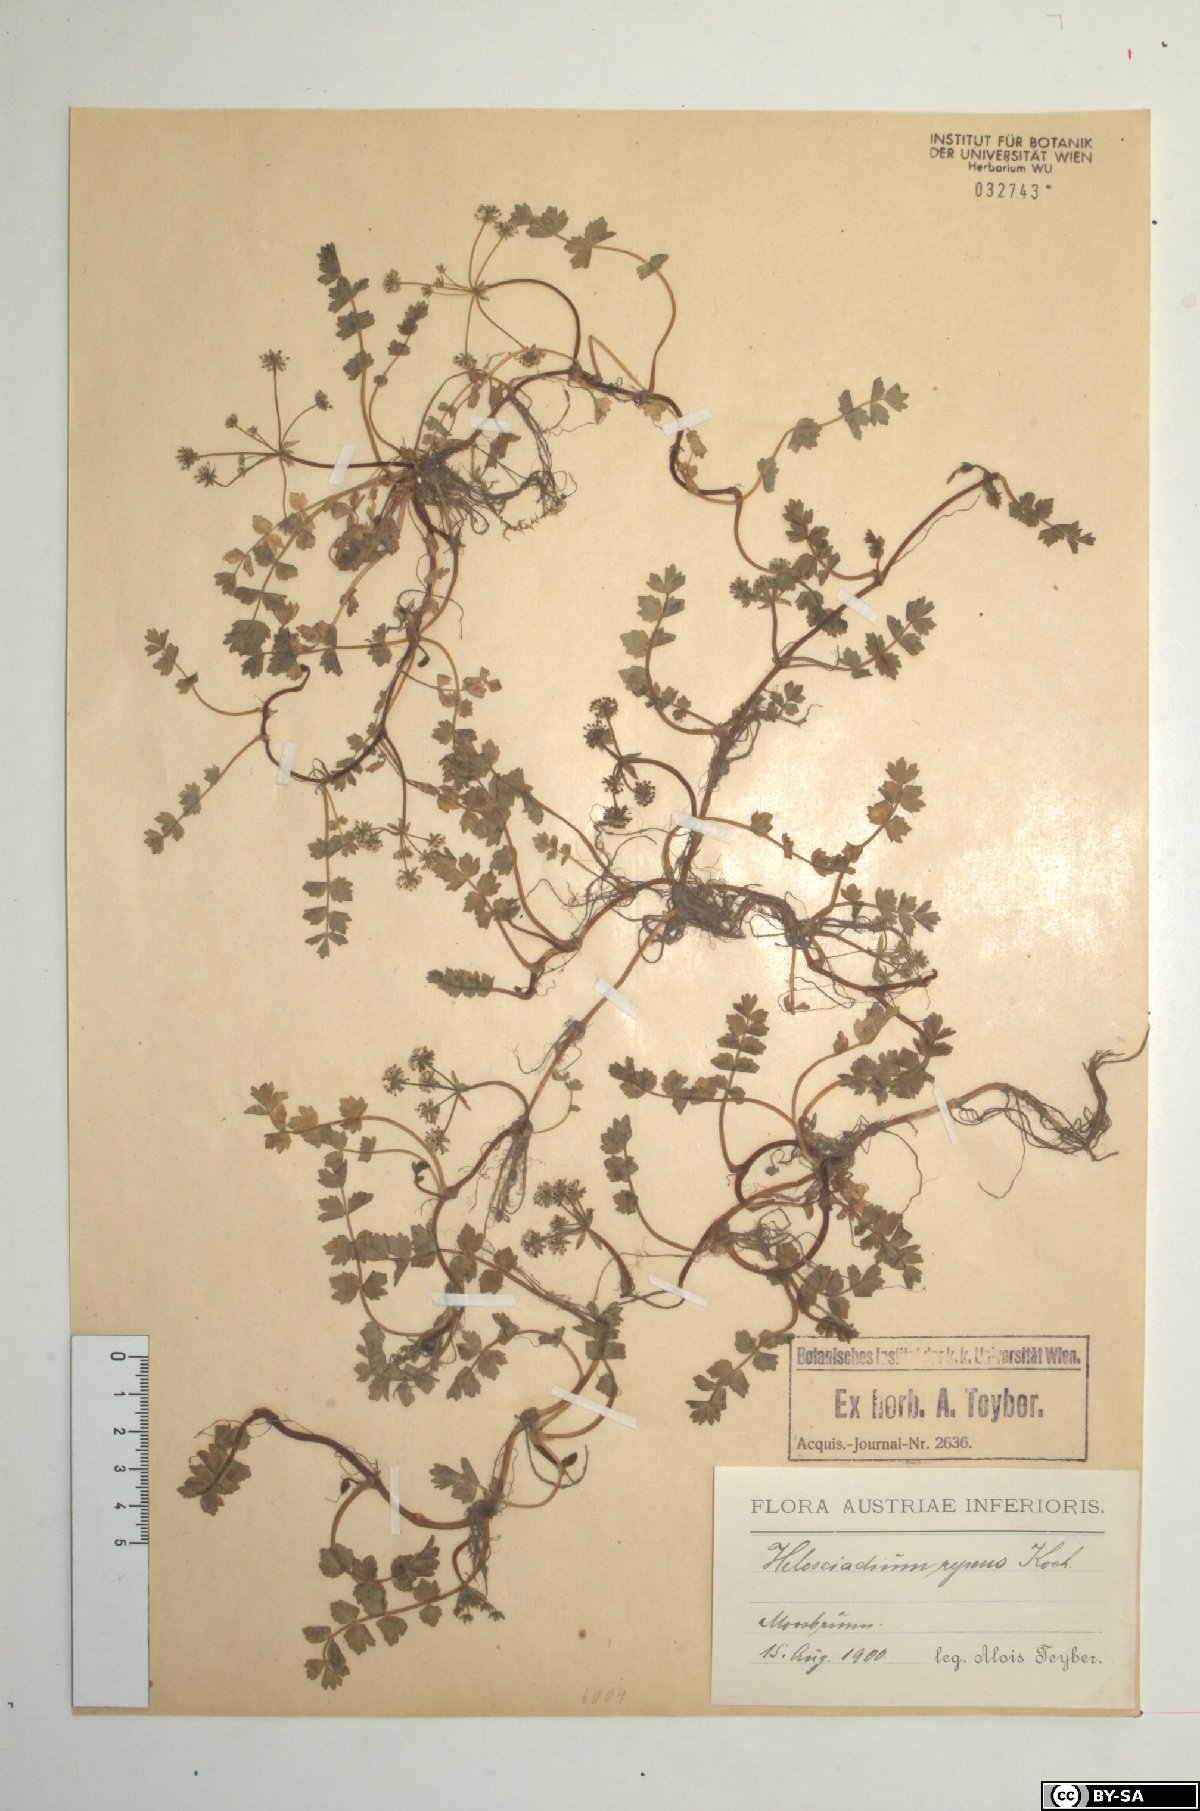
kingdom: Plantae
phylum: Tracheophyta
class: Magnoliopsida
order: Apiales
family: Apiaceae
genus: Helosciadium
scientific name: Helosciadium repens
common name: Creeping marshwort
